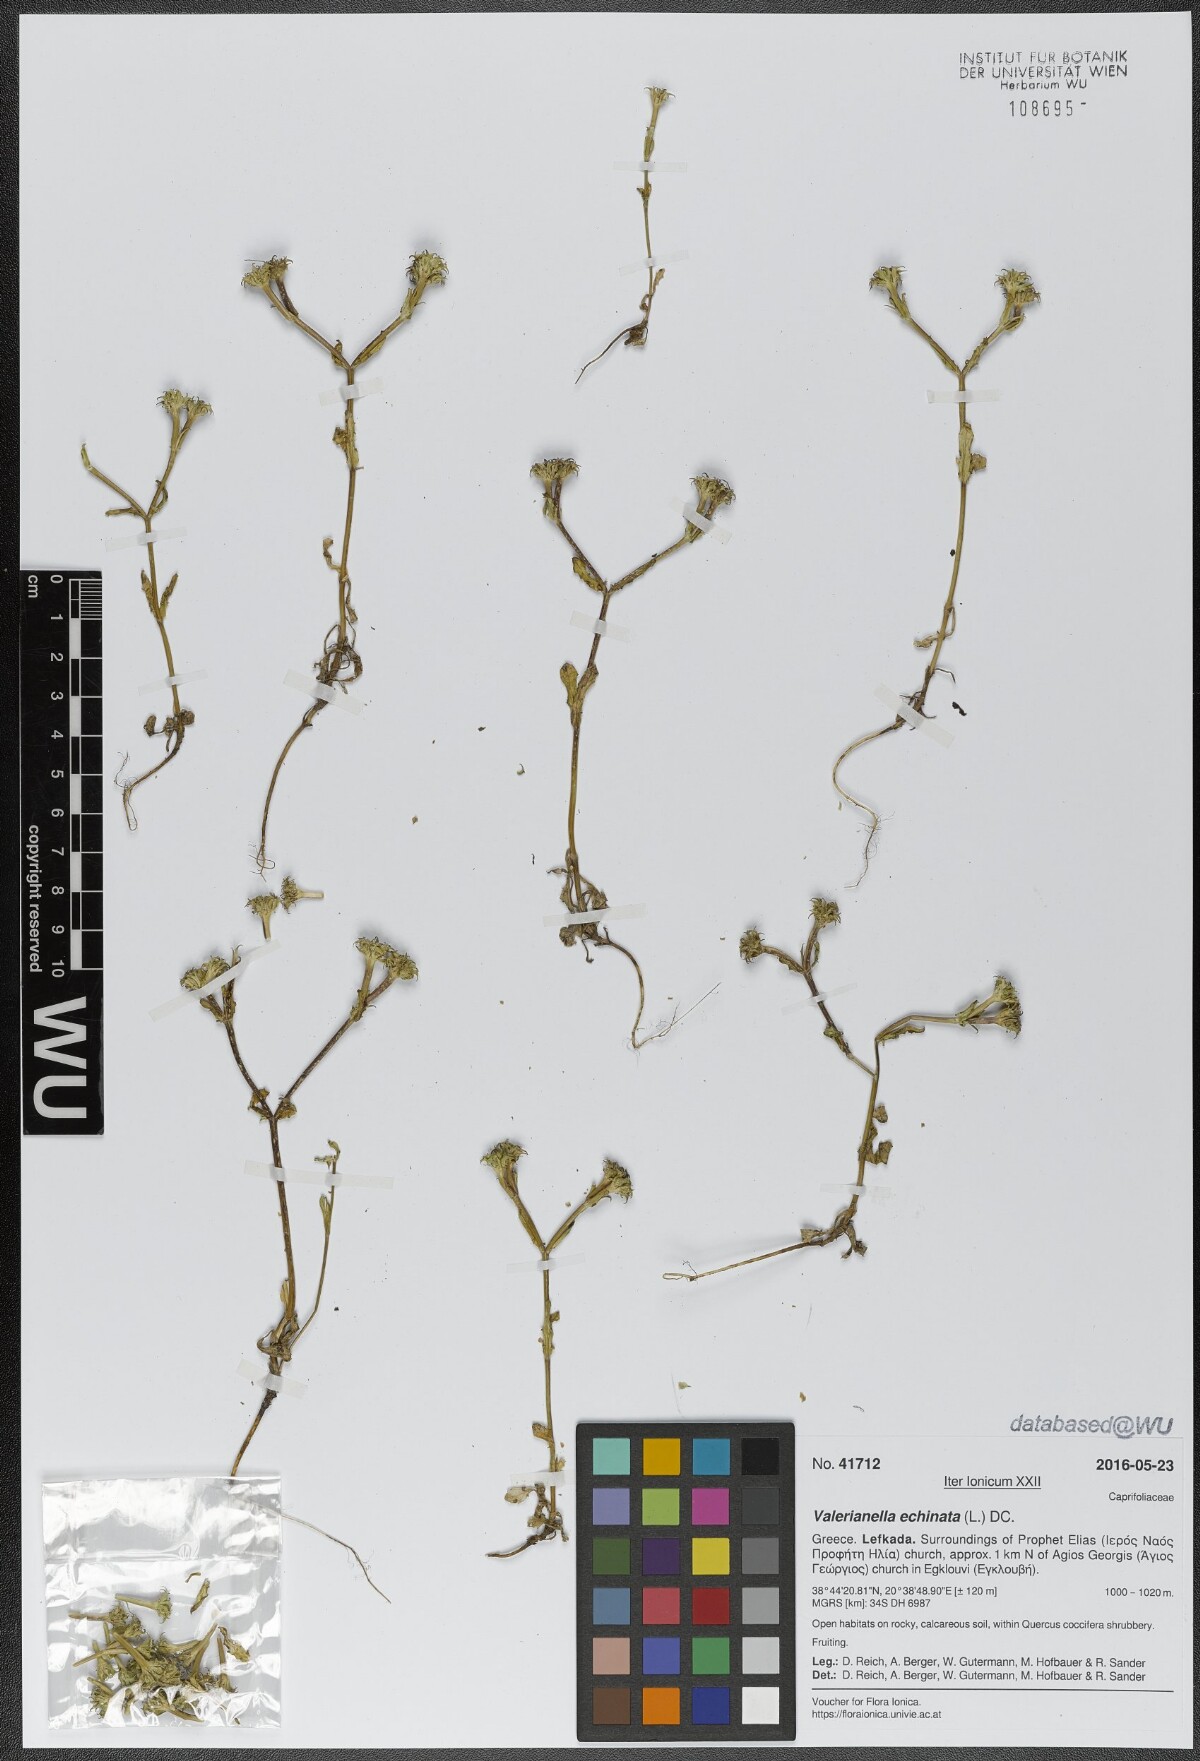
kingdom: Plantae
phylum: Tracheophyta
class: Magnoliopsida
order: Dipsacales
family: Caprifoliaceae
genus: Valerianella
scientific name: Valerianella echinata
